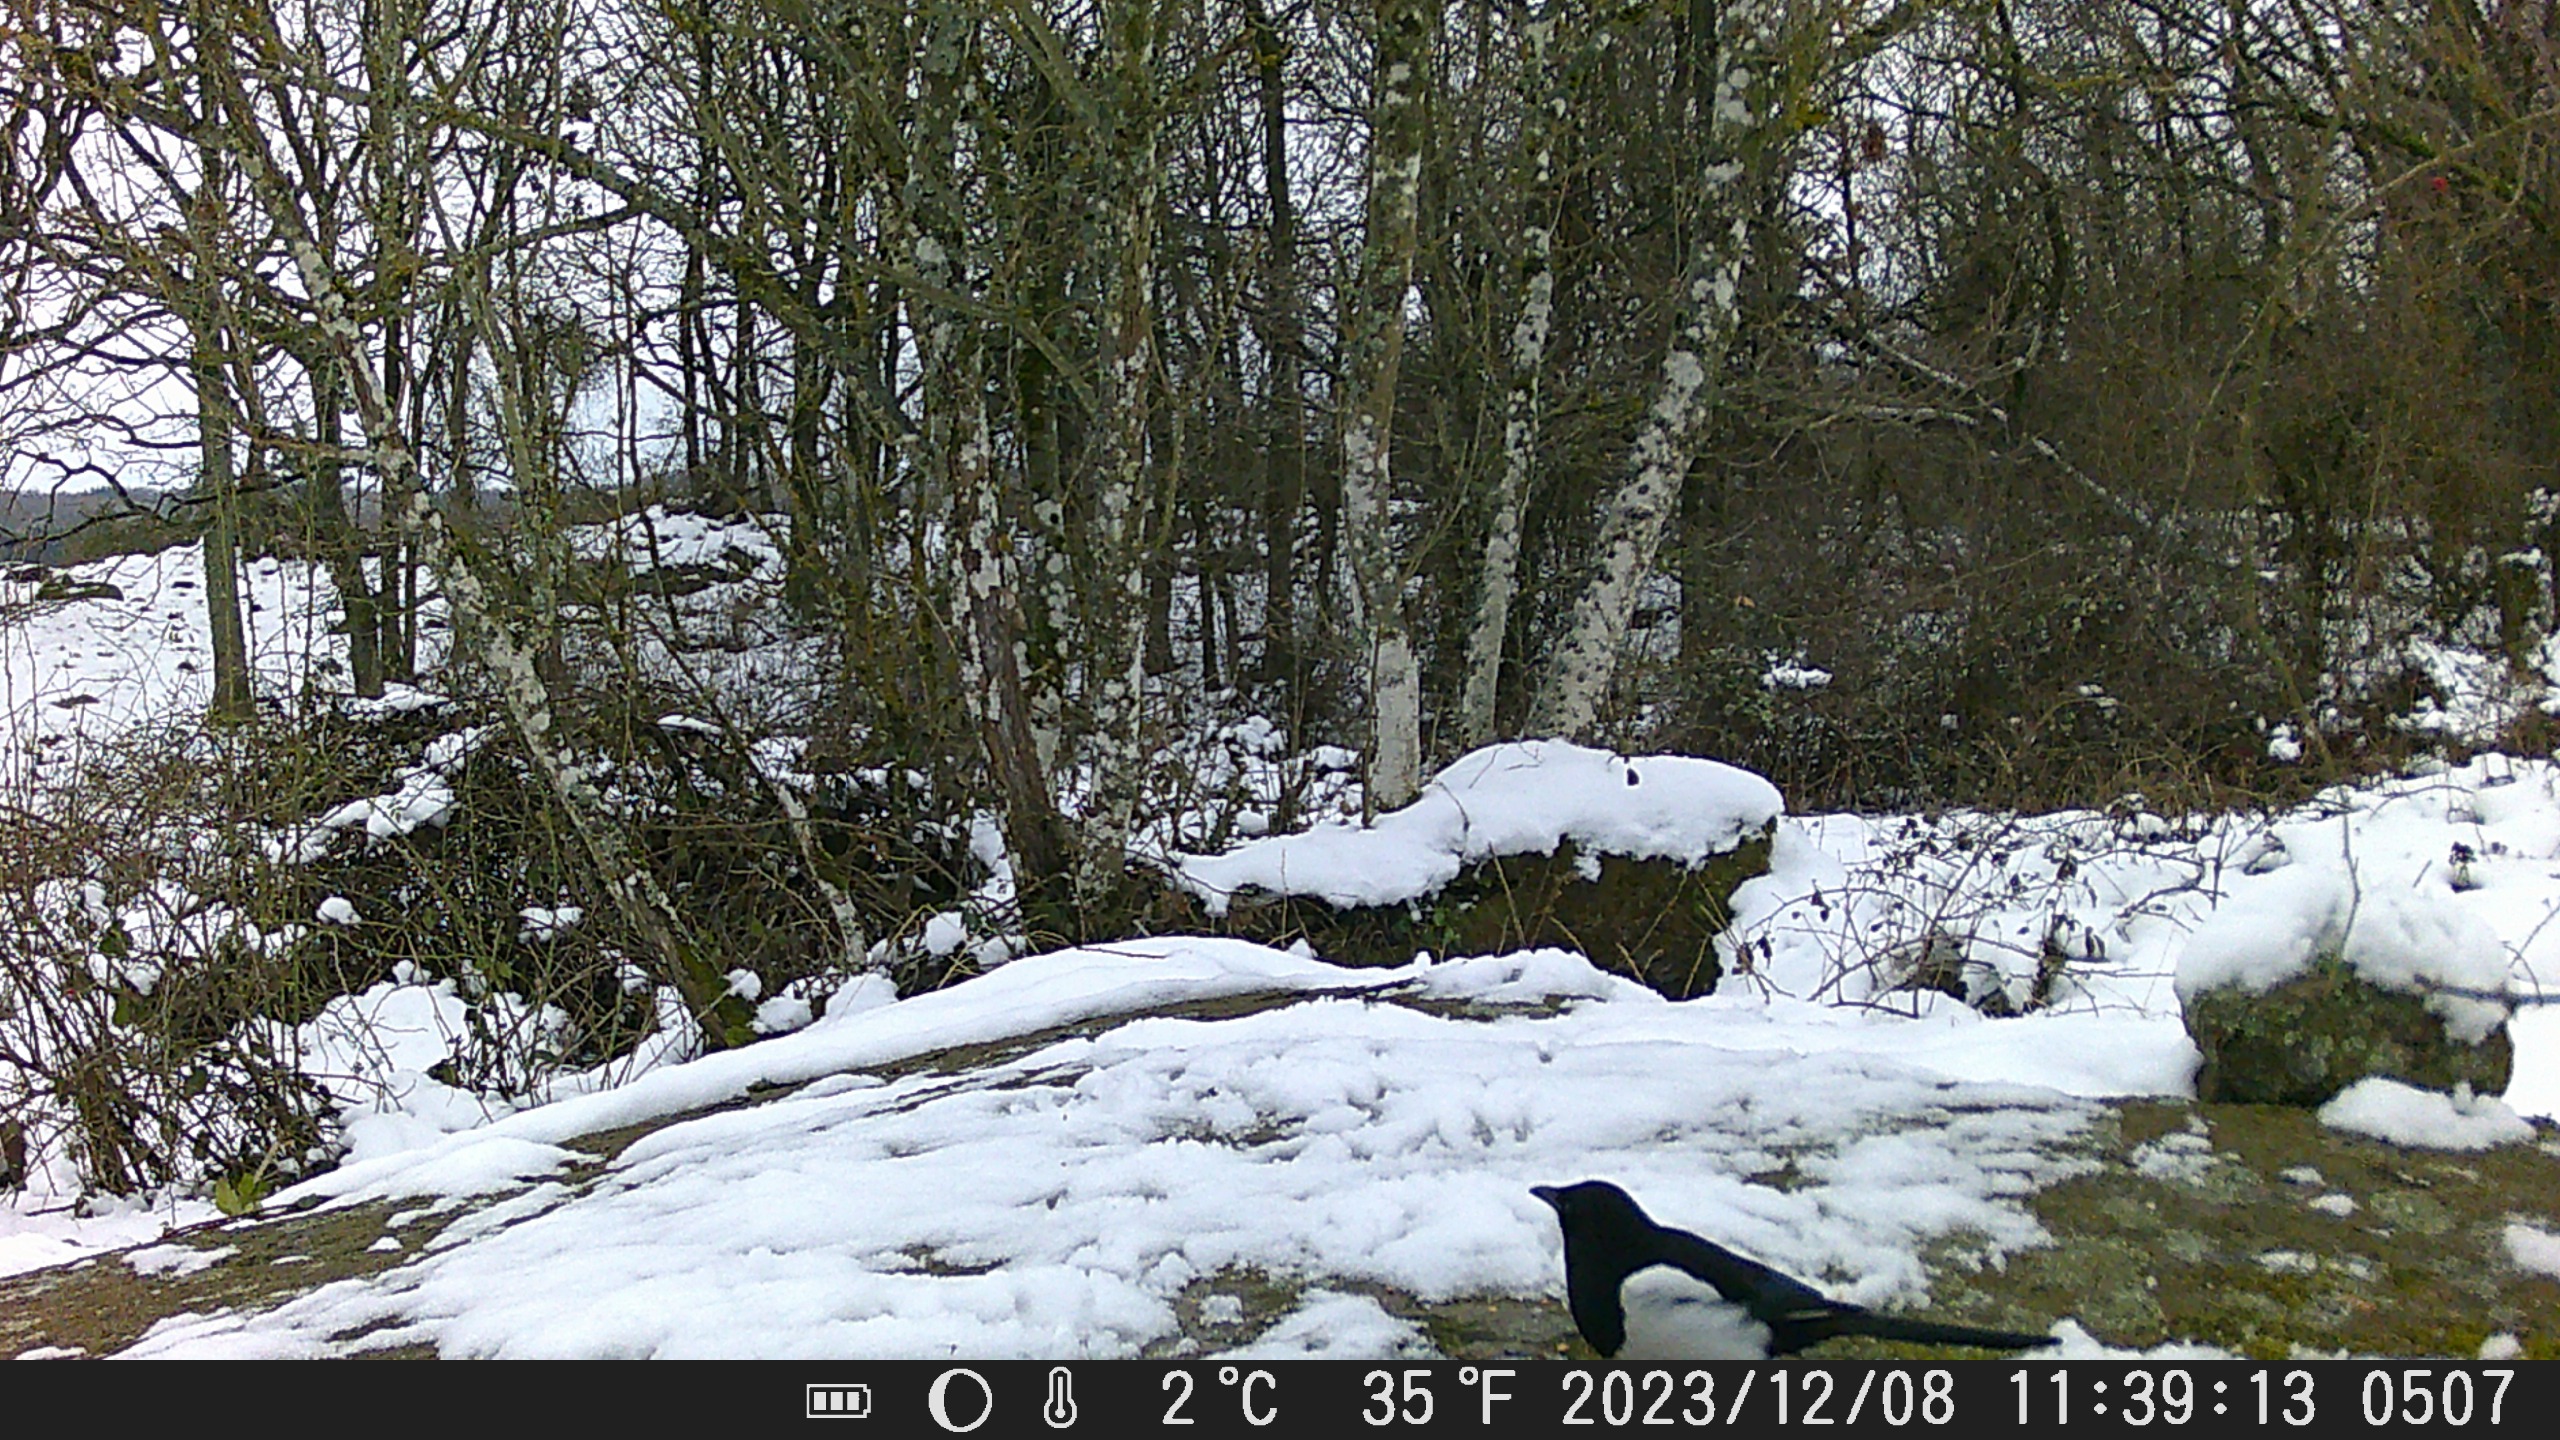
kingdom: Animalia
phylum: Chordata
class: Aves
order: Passeriformes
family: Corvidae
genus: Pica
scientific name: Pica pica
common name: Husskade
